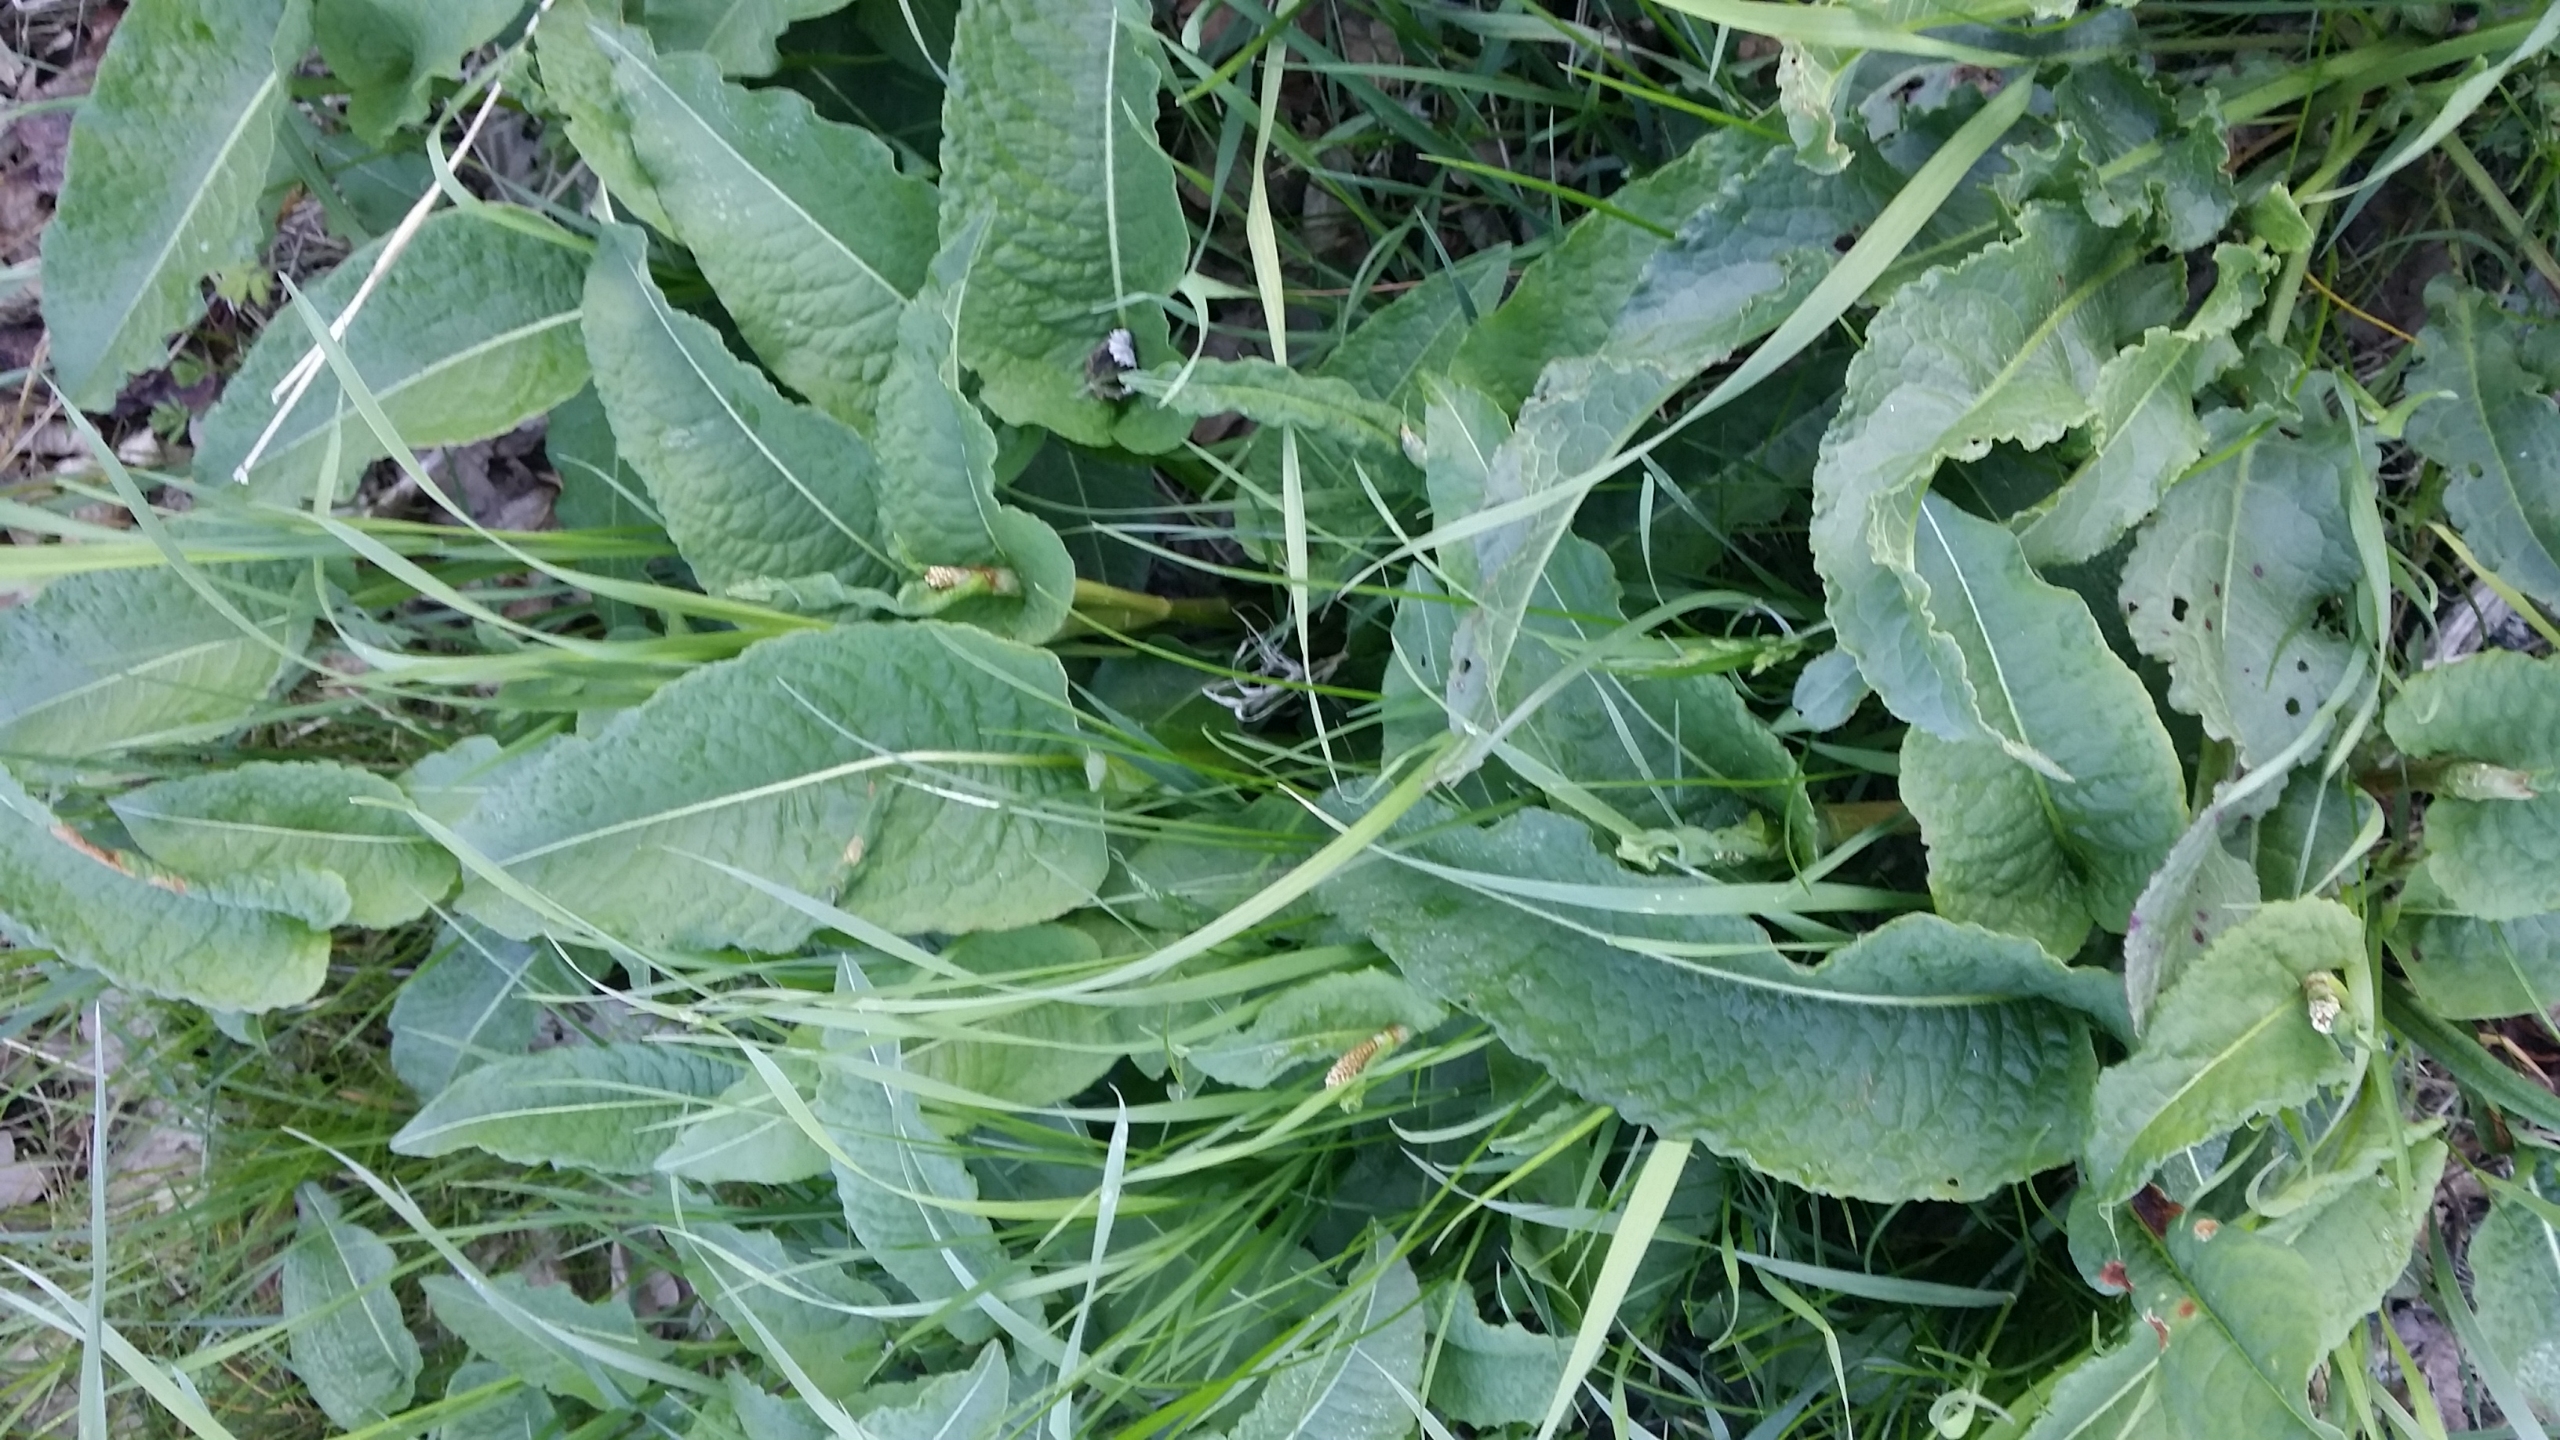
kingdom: Plantae
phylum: Tracheophyta
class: Magnoliopsida
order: Caryophyllales
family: Polygonaceae
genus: Bistorta
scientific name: Bistorta officinalis
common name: Slangeurt
